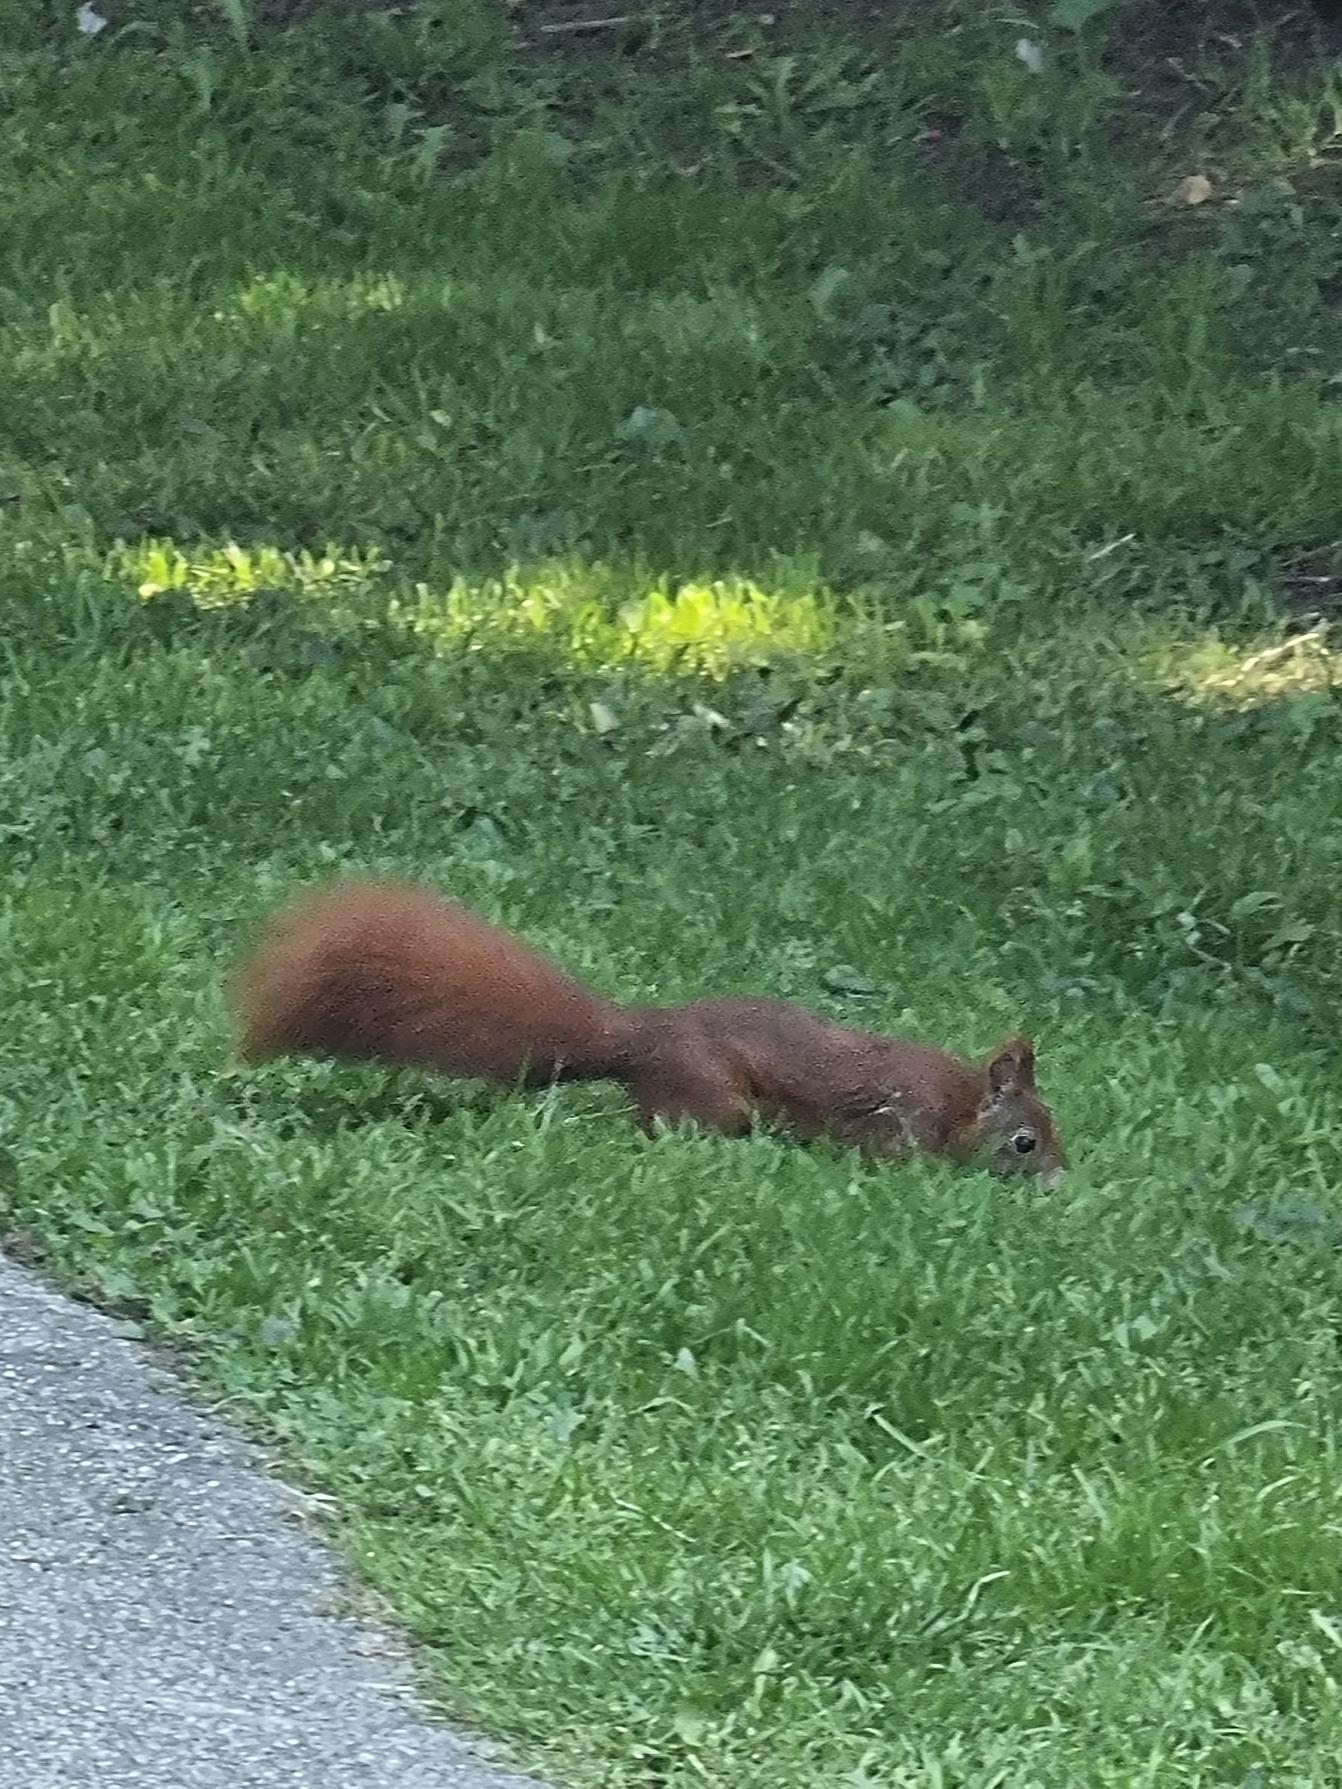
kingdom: Animalia
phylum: Chordata
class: Mammalia
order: Rodentia
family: Sciuridae
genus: Sciurus
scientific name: Sciurus vulgaris
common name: Egern
